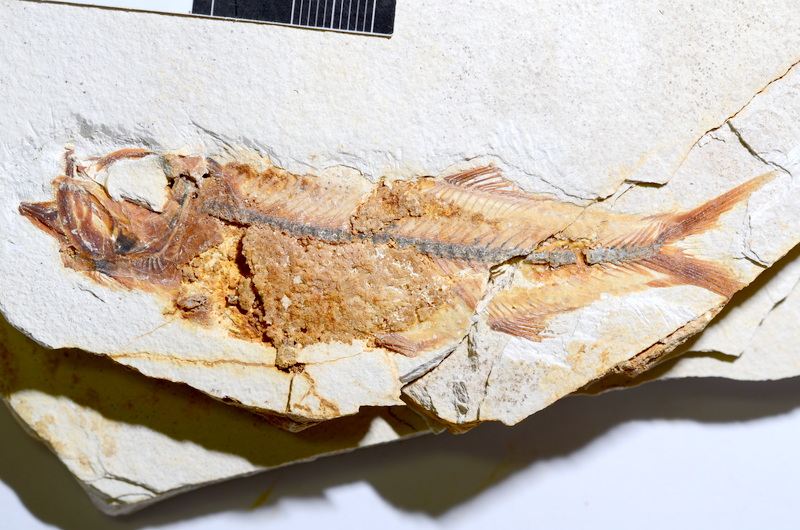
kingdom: Animalia
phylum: Chordata
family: Ascalaboidae
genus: Ebertichthys
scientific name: Ebertichthys ettlingensis
